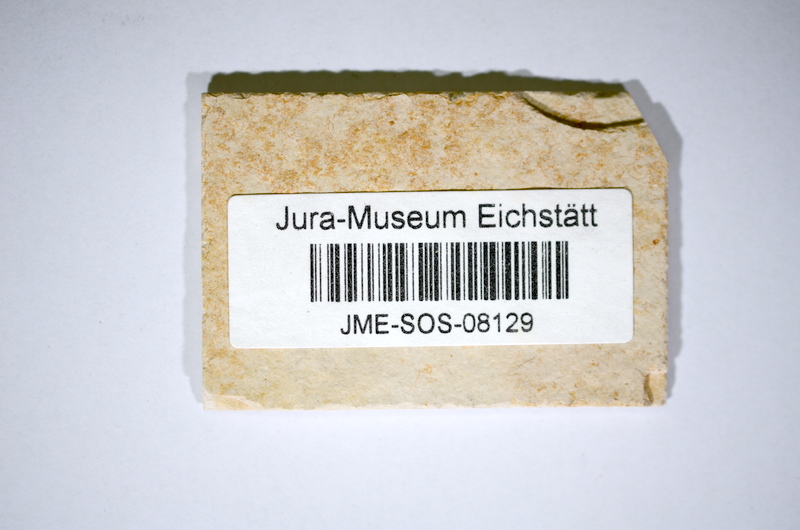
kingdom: Animalia
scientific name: Animalia
